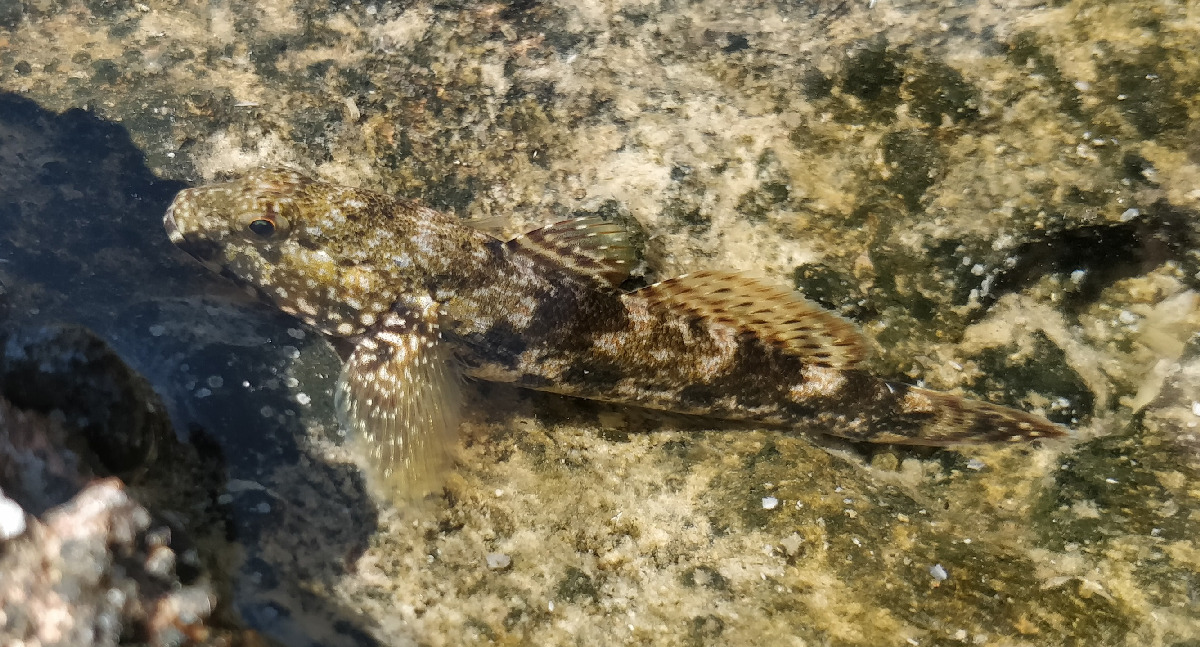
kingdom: Animalia
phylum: Chordata
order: Perciformes
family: Gobiidae
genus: Gobius
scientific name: Gobius cobitis
